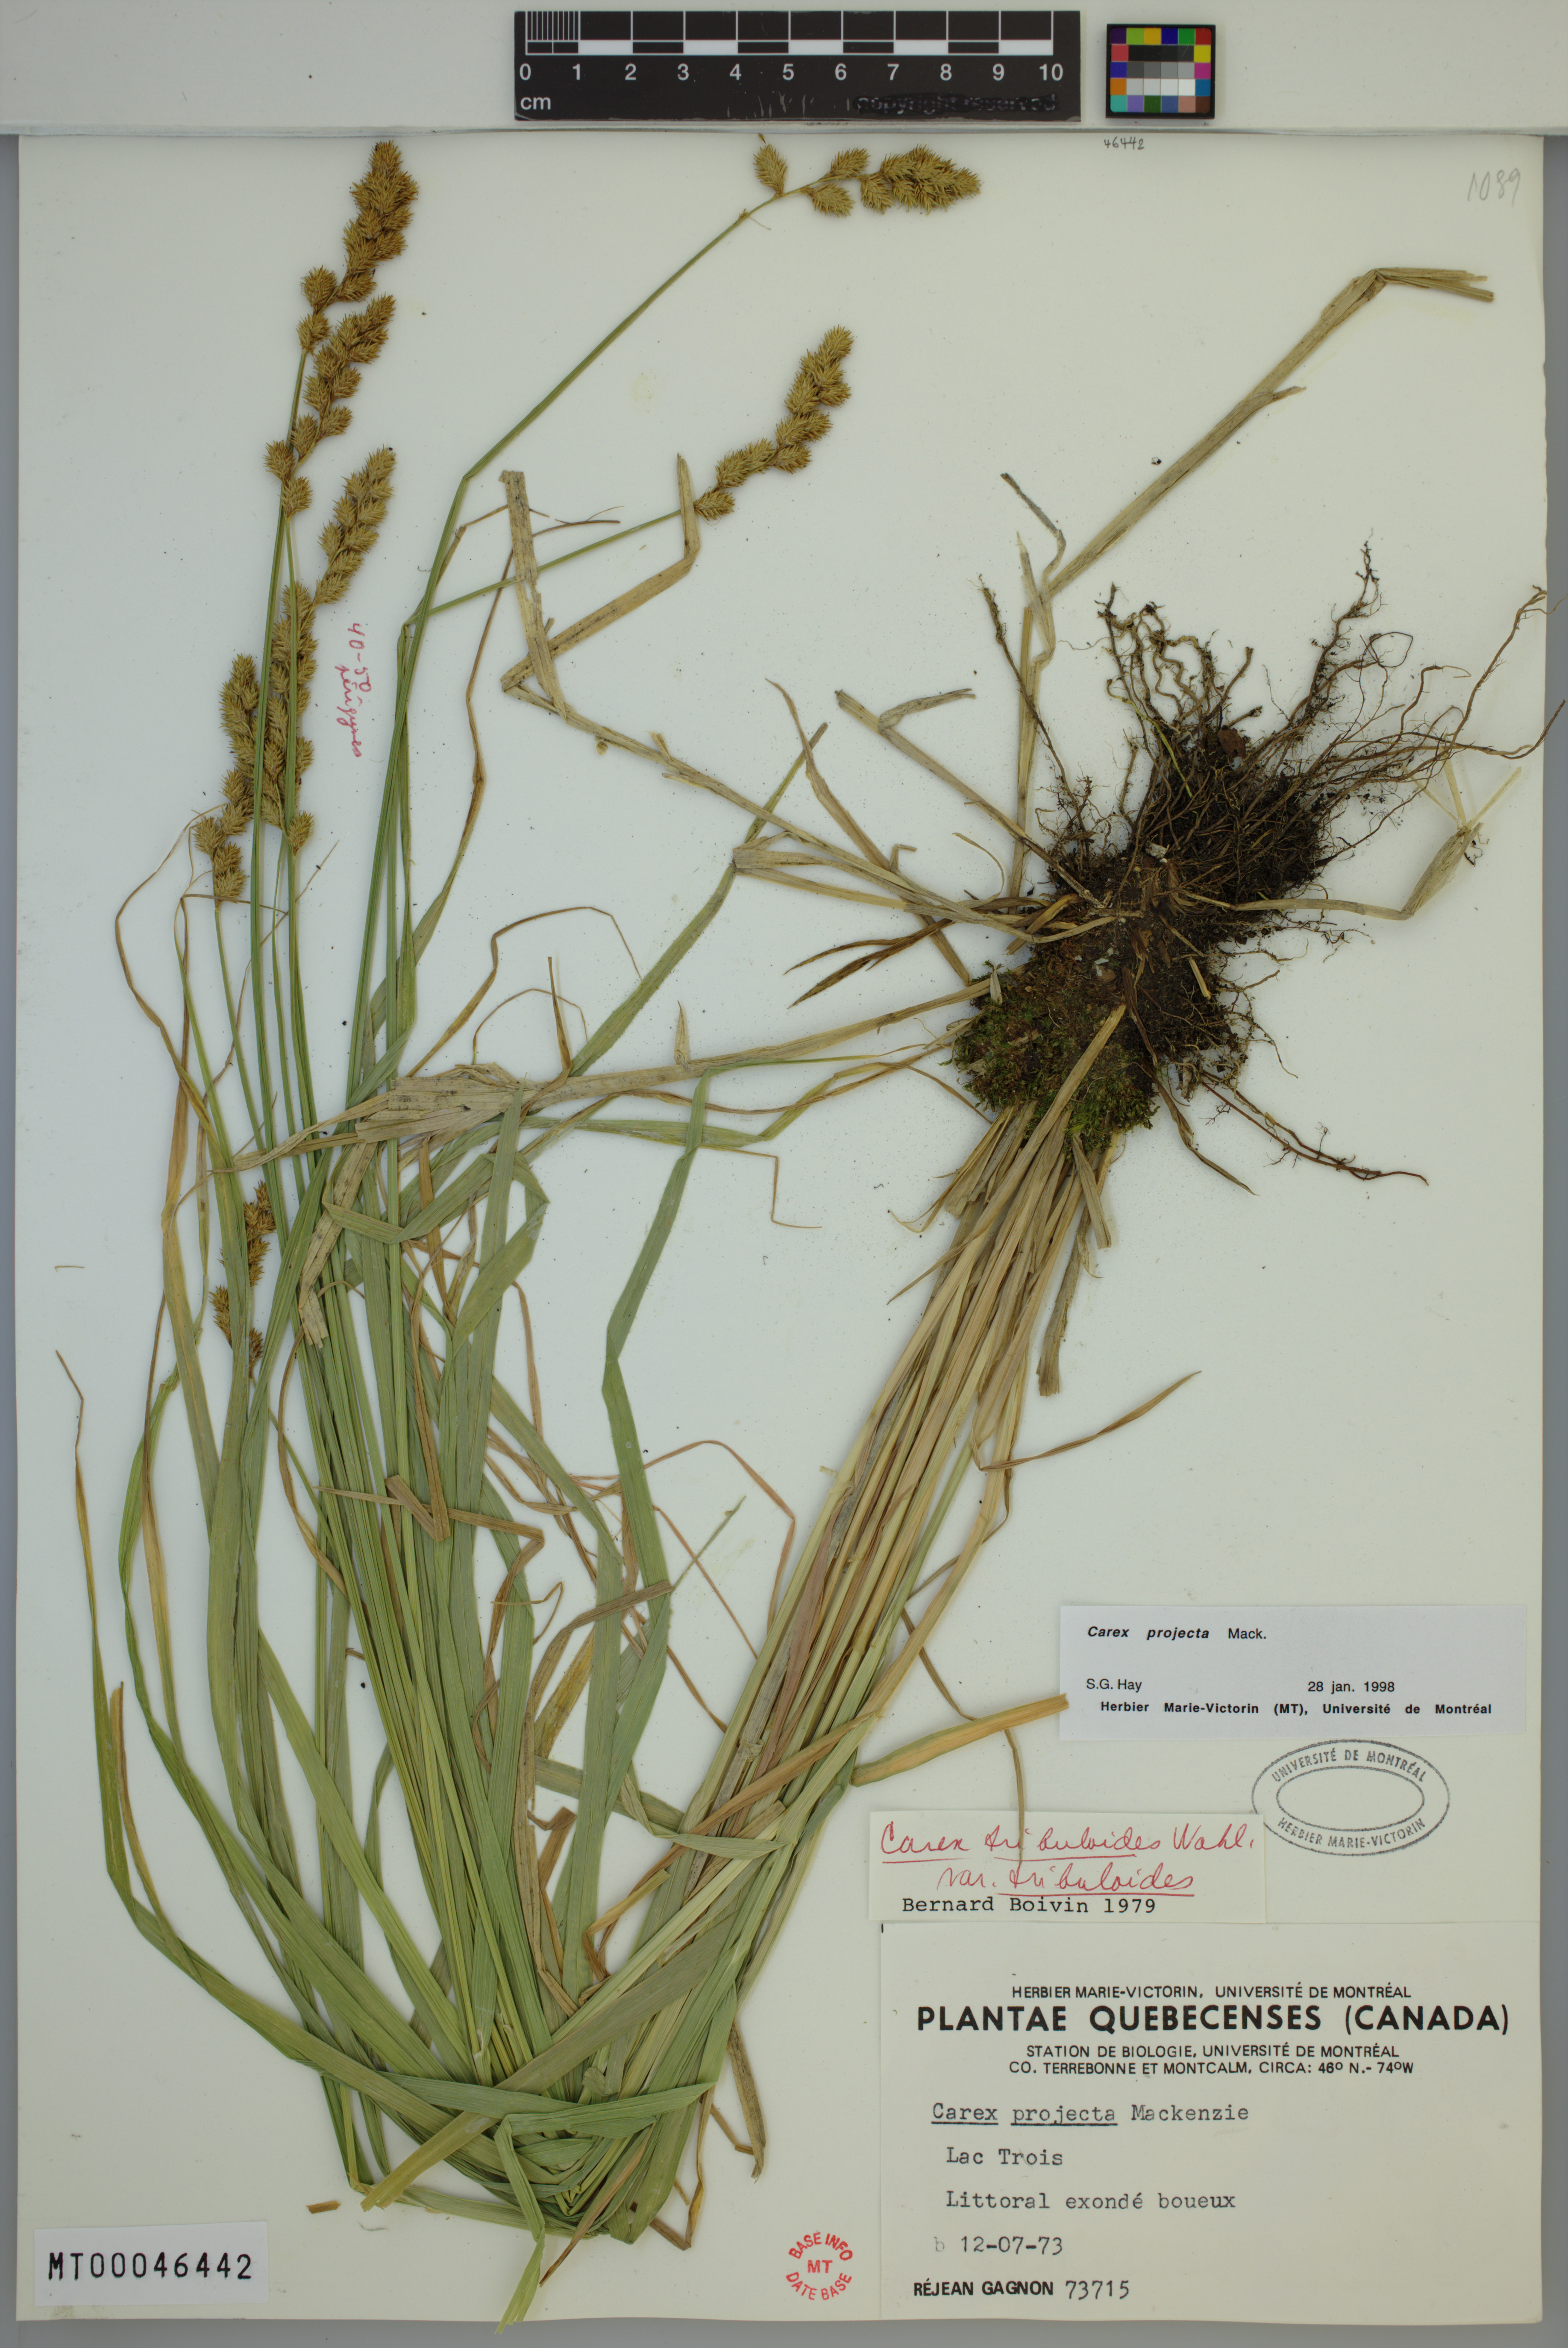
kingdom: Plantae
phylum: Tracheophyta
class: Liliopsida
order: Poales
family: Cyperaceae
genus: Carex
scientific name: Carex projecta
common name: Loose-headed oval sedge
